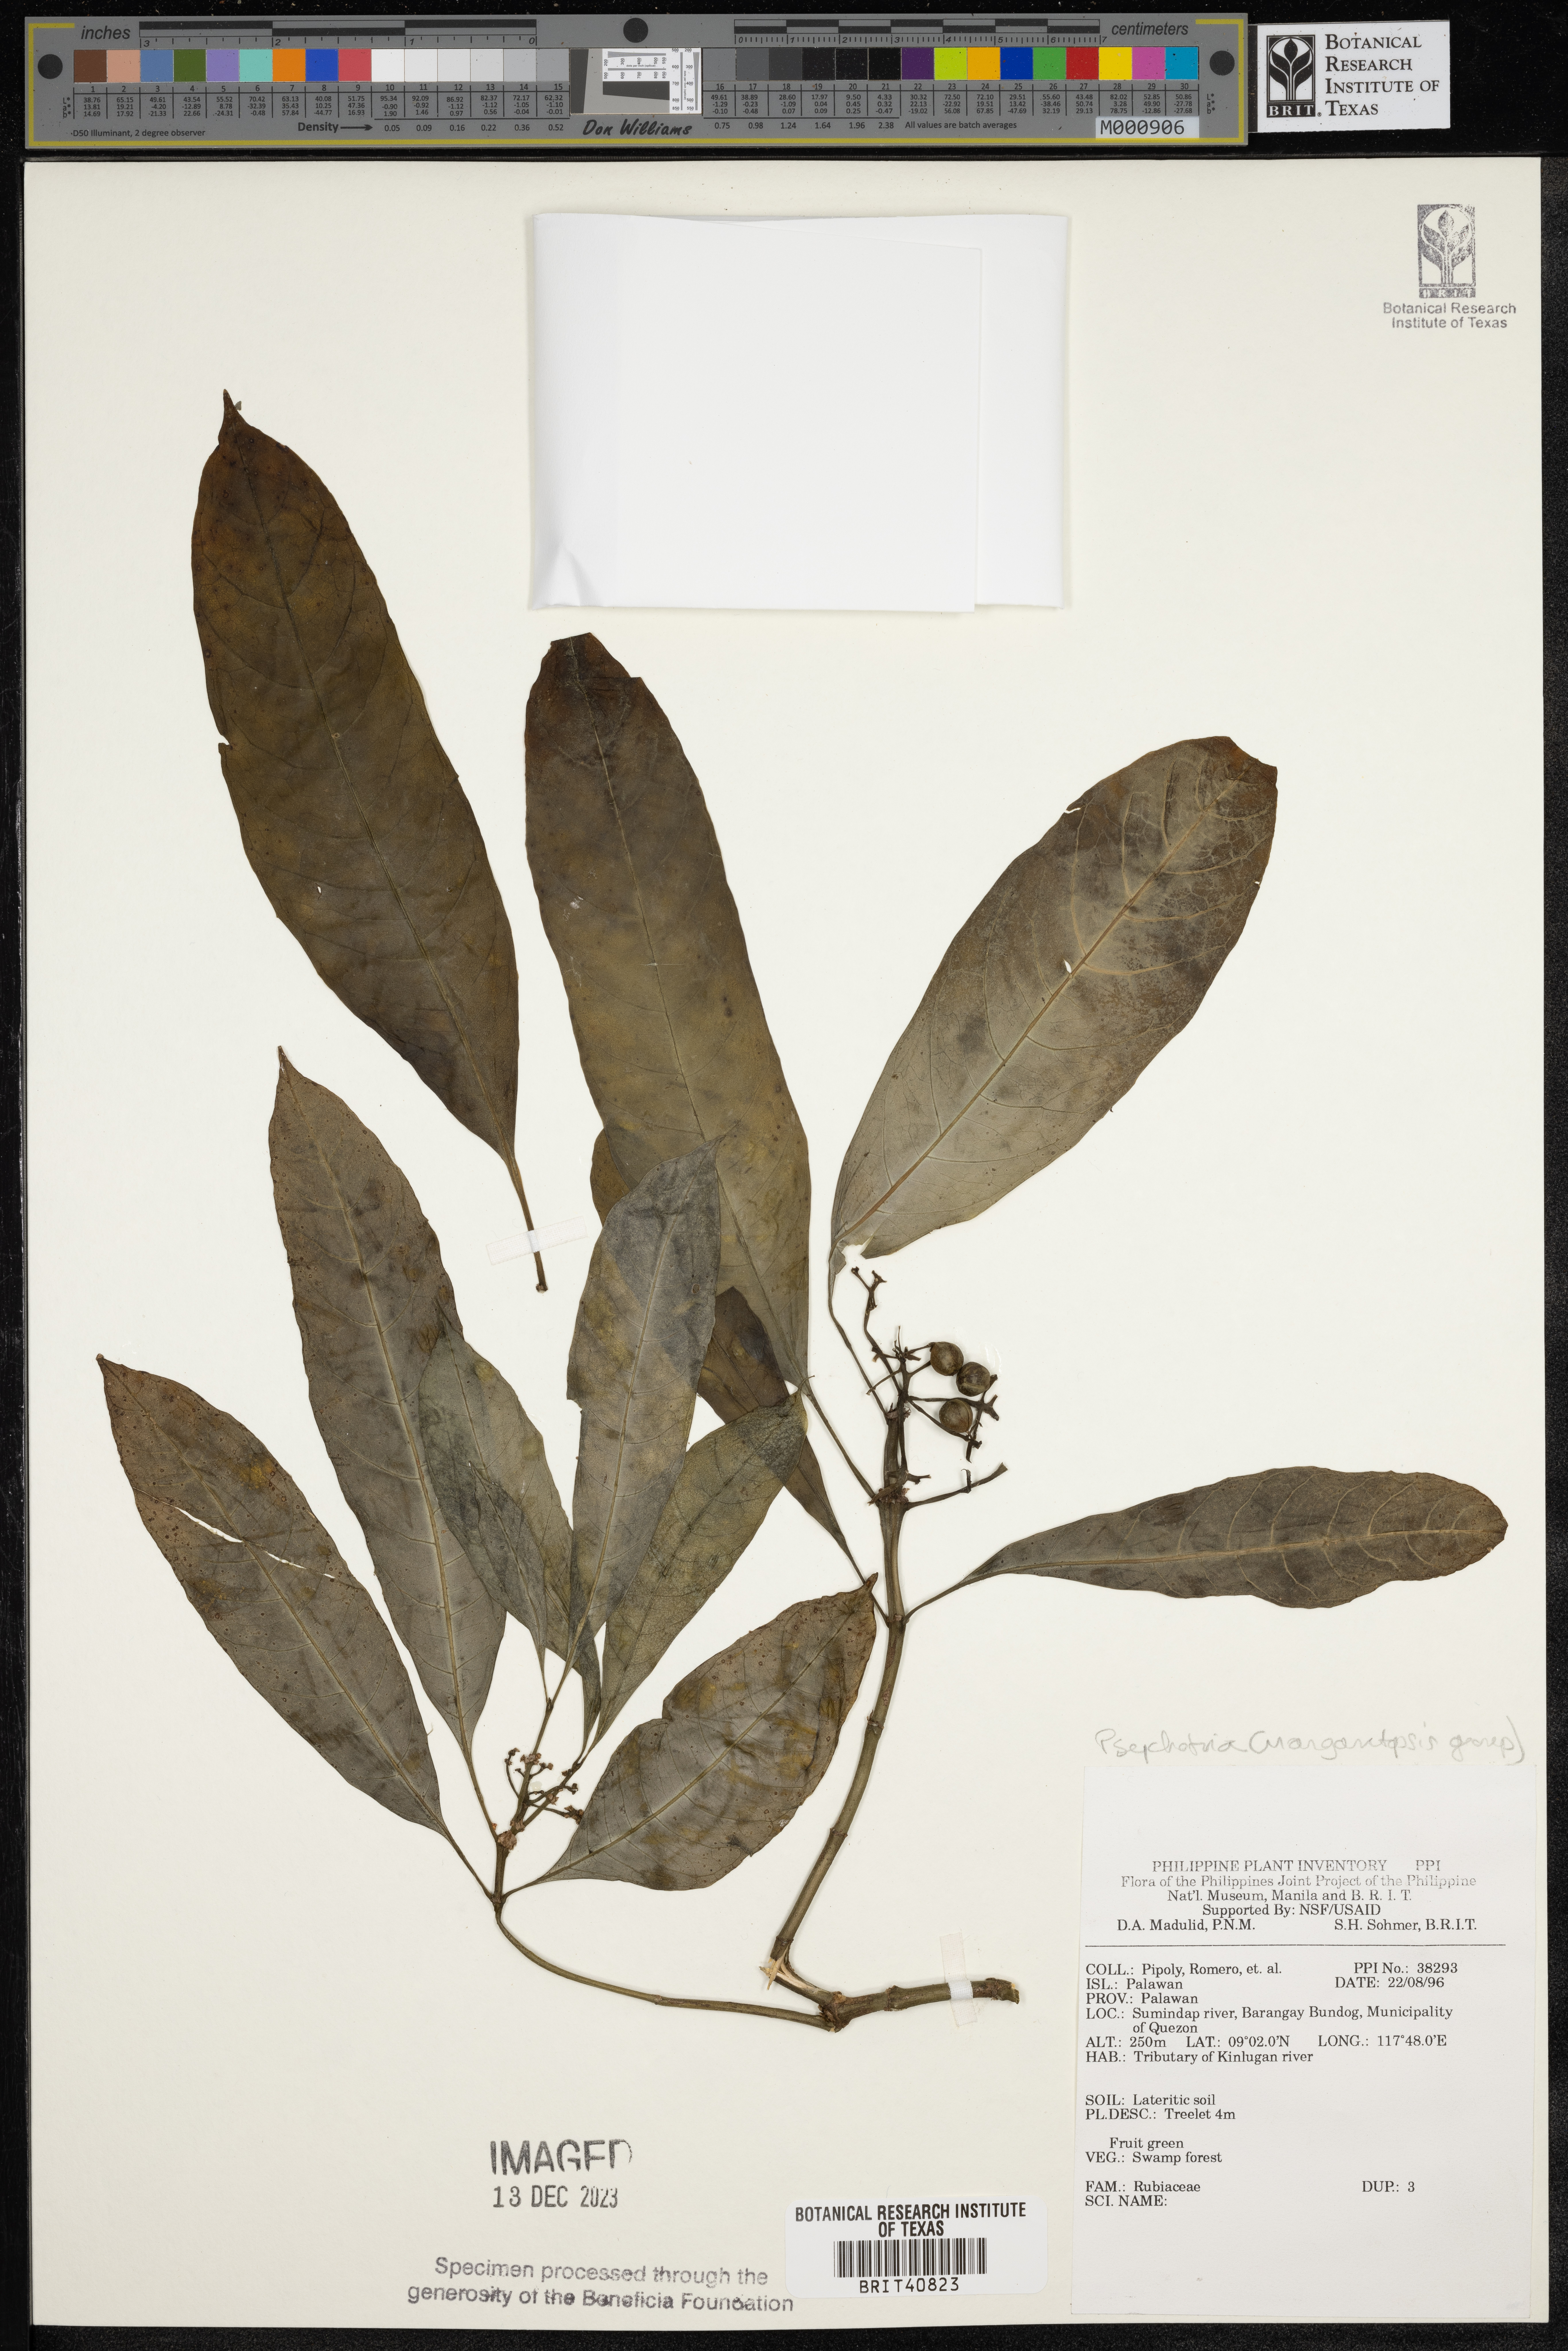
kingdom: Plantae
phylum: Tracheophyta
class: Magnoliopsida
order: Gentianales
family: Rubiaceae
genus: Psychotria
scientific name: Psychotria
